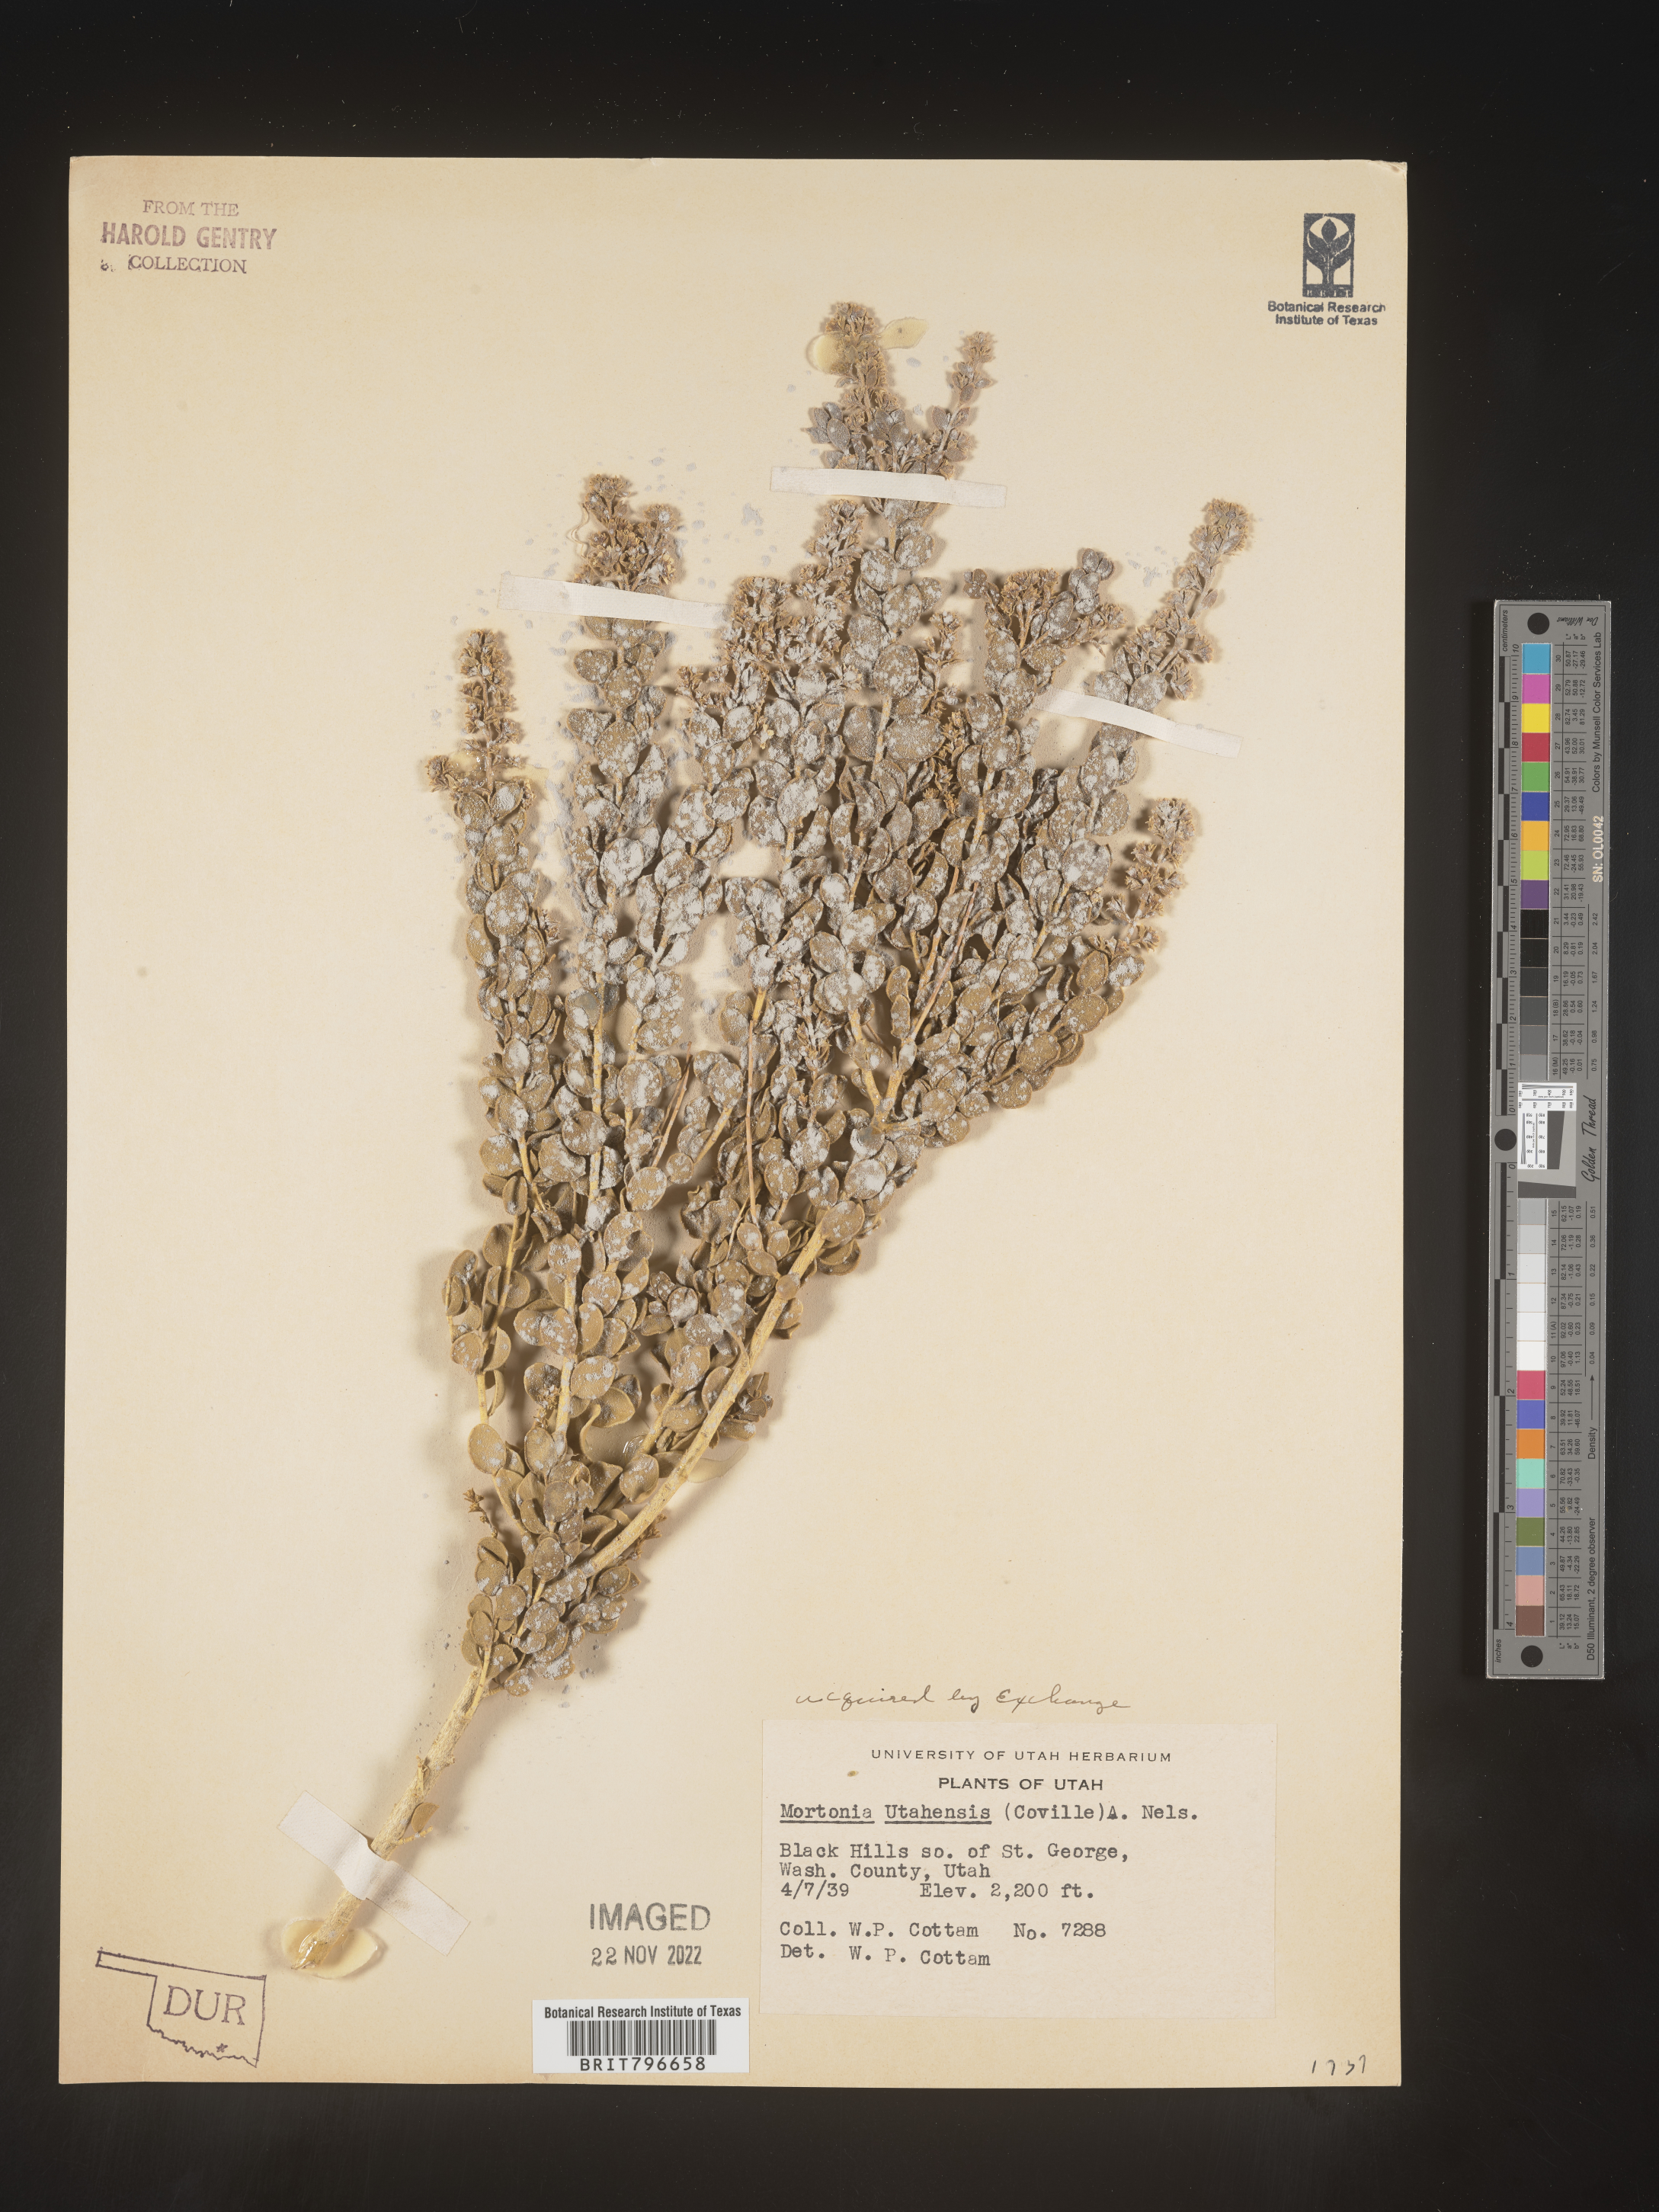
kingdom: Plantae
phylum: Tracheophyta
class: Magnoliopsida
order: Celastrales
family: Celastraceae
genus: Mortonia
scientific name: Mortonia
